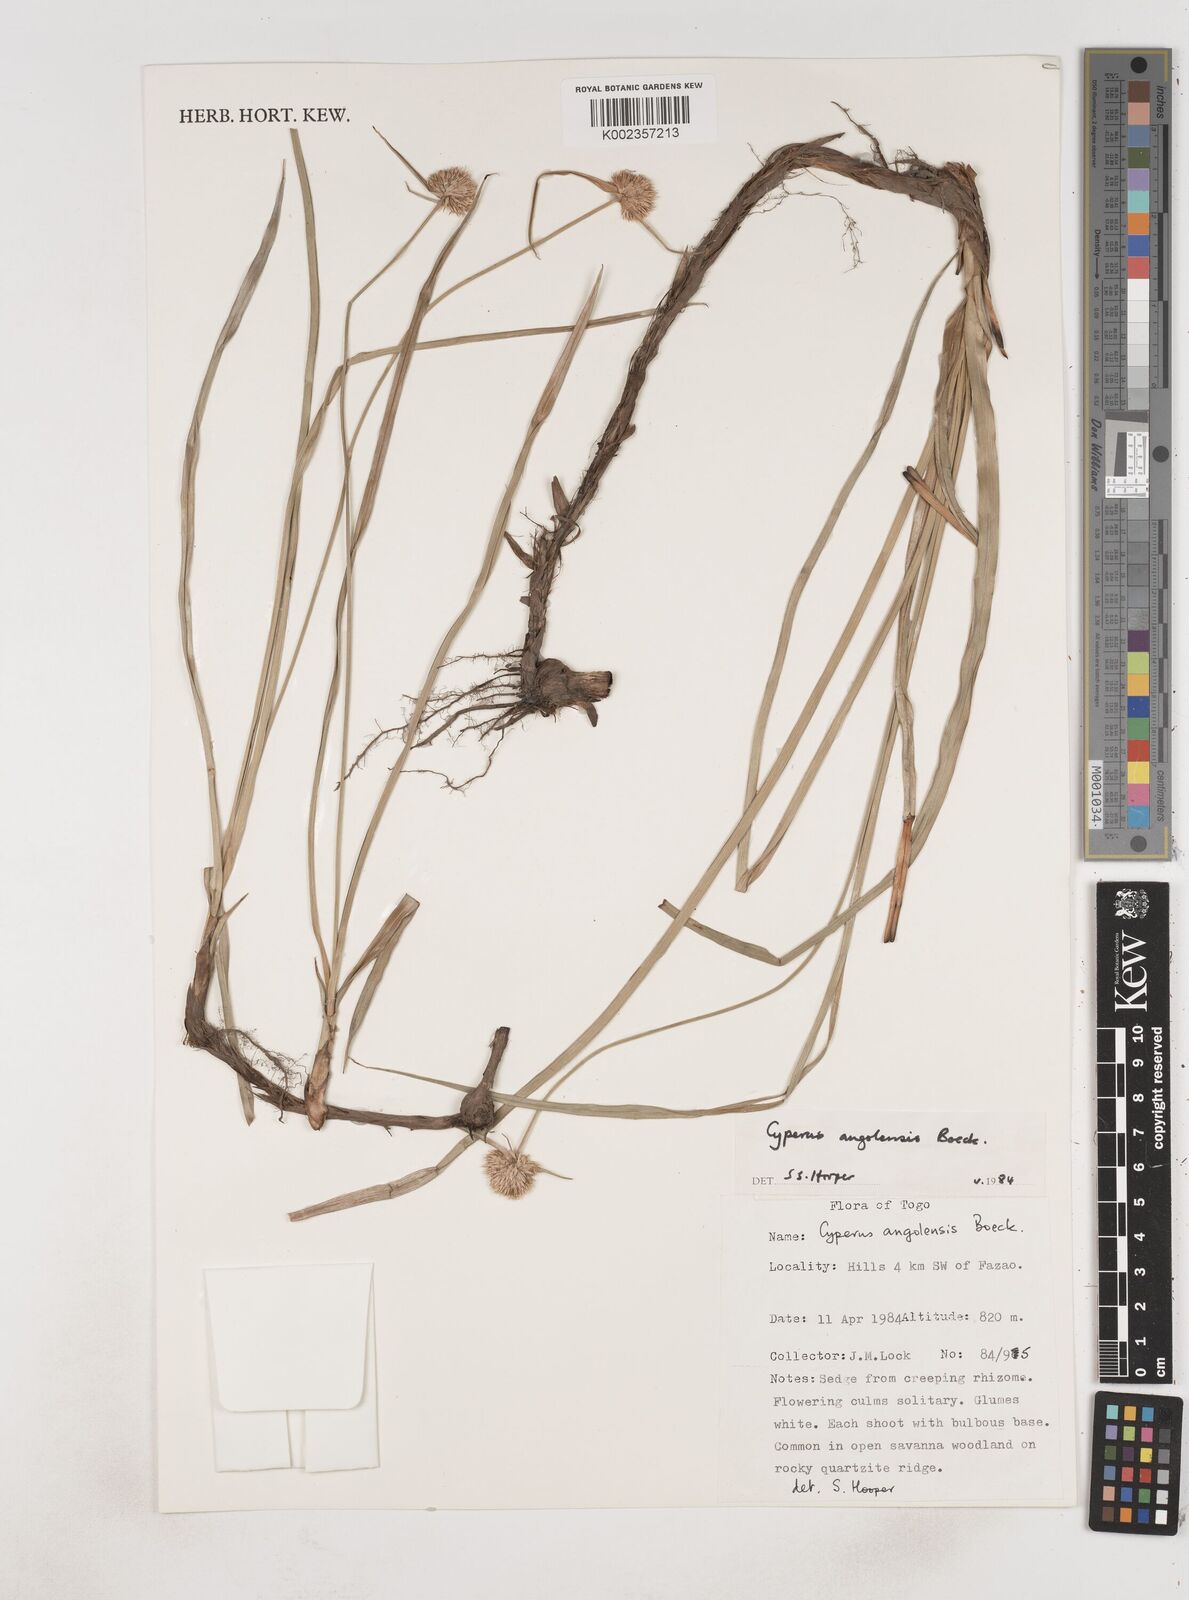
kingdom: Plantae
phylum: Tracheophyta
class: Liliopsida
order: Poales
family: Cyperaceae
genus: Cyperus
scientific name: Cyperus angolensis
